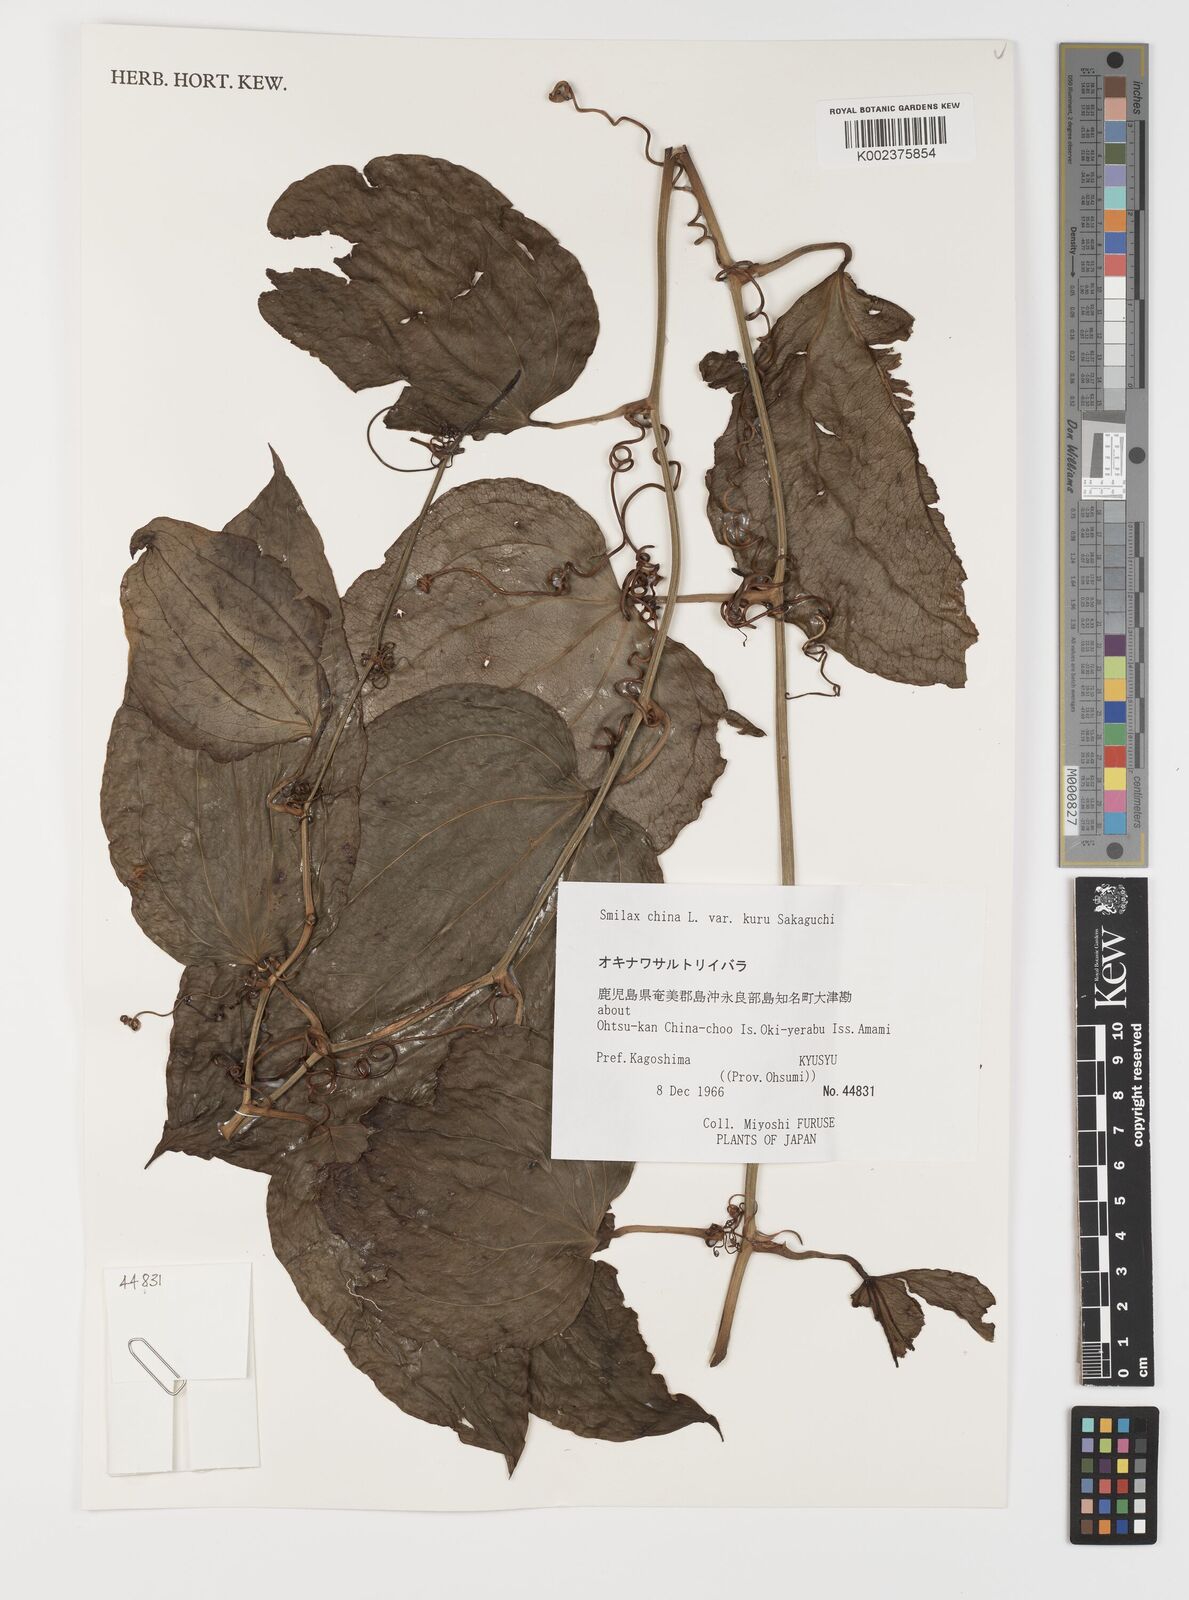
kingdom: Plantae
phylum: Tracheophyta
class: Liliopsida
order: Liliales
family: Smilacaceae
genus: Smilax
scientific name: Smilax china
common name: Chinaroot
